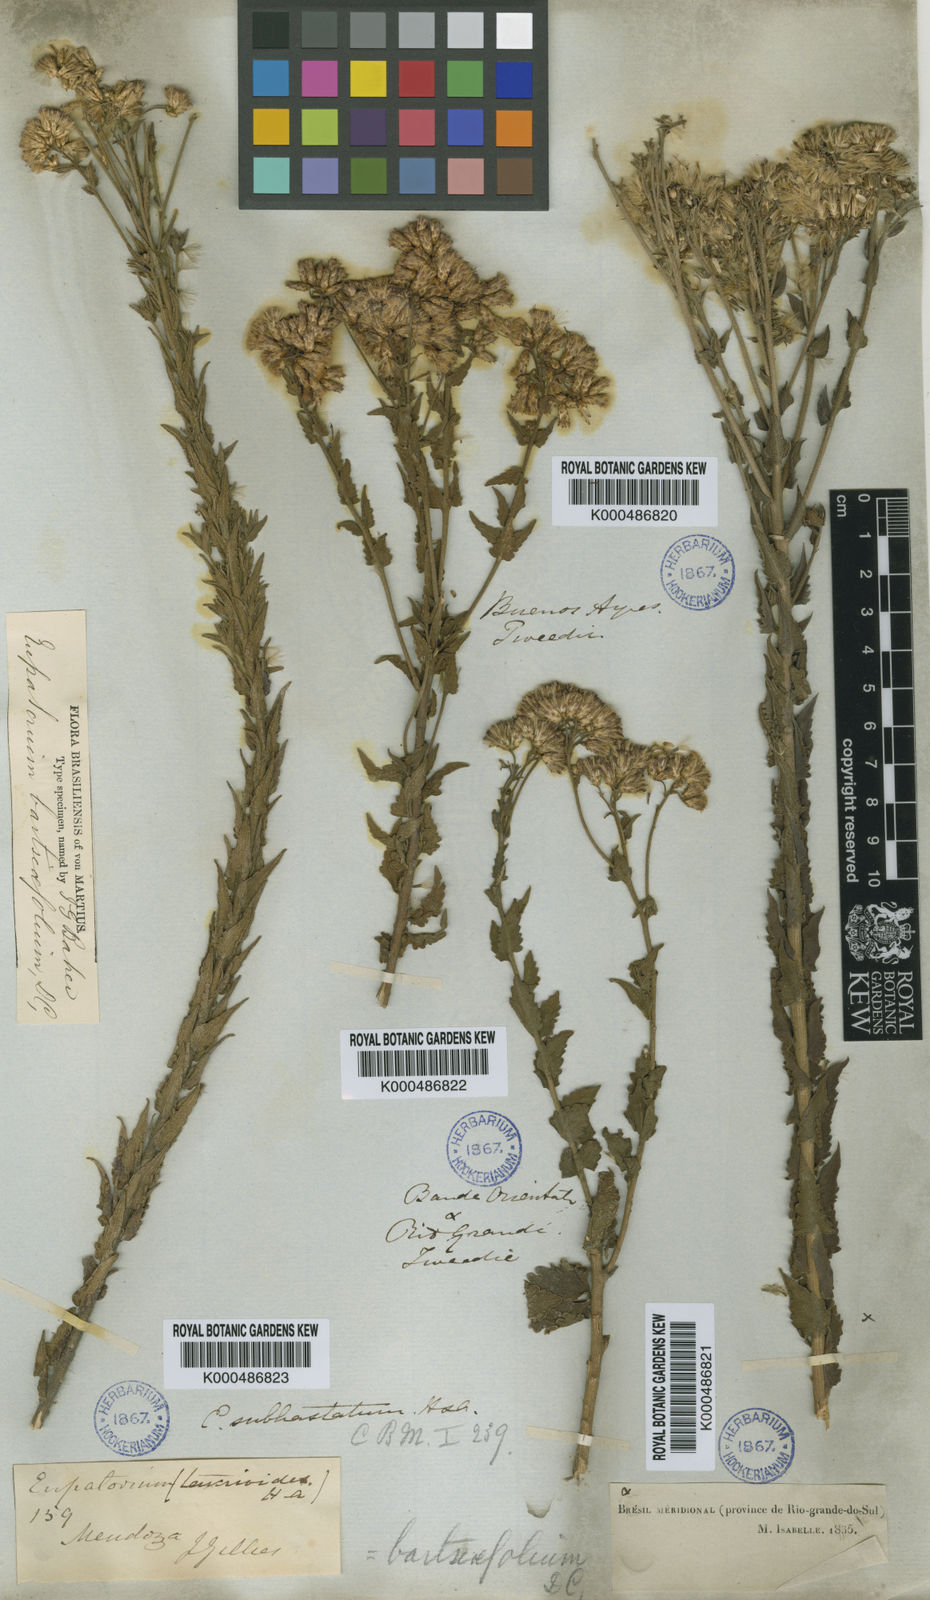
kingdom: Plantae
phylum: Tracheophyta
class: Magnoliopsida
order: Asterales
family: Asteraceae
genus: Chromolaena
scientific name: Chromolaena hirsuta
